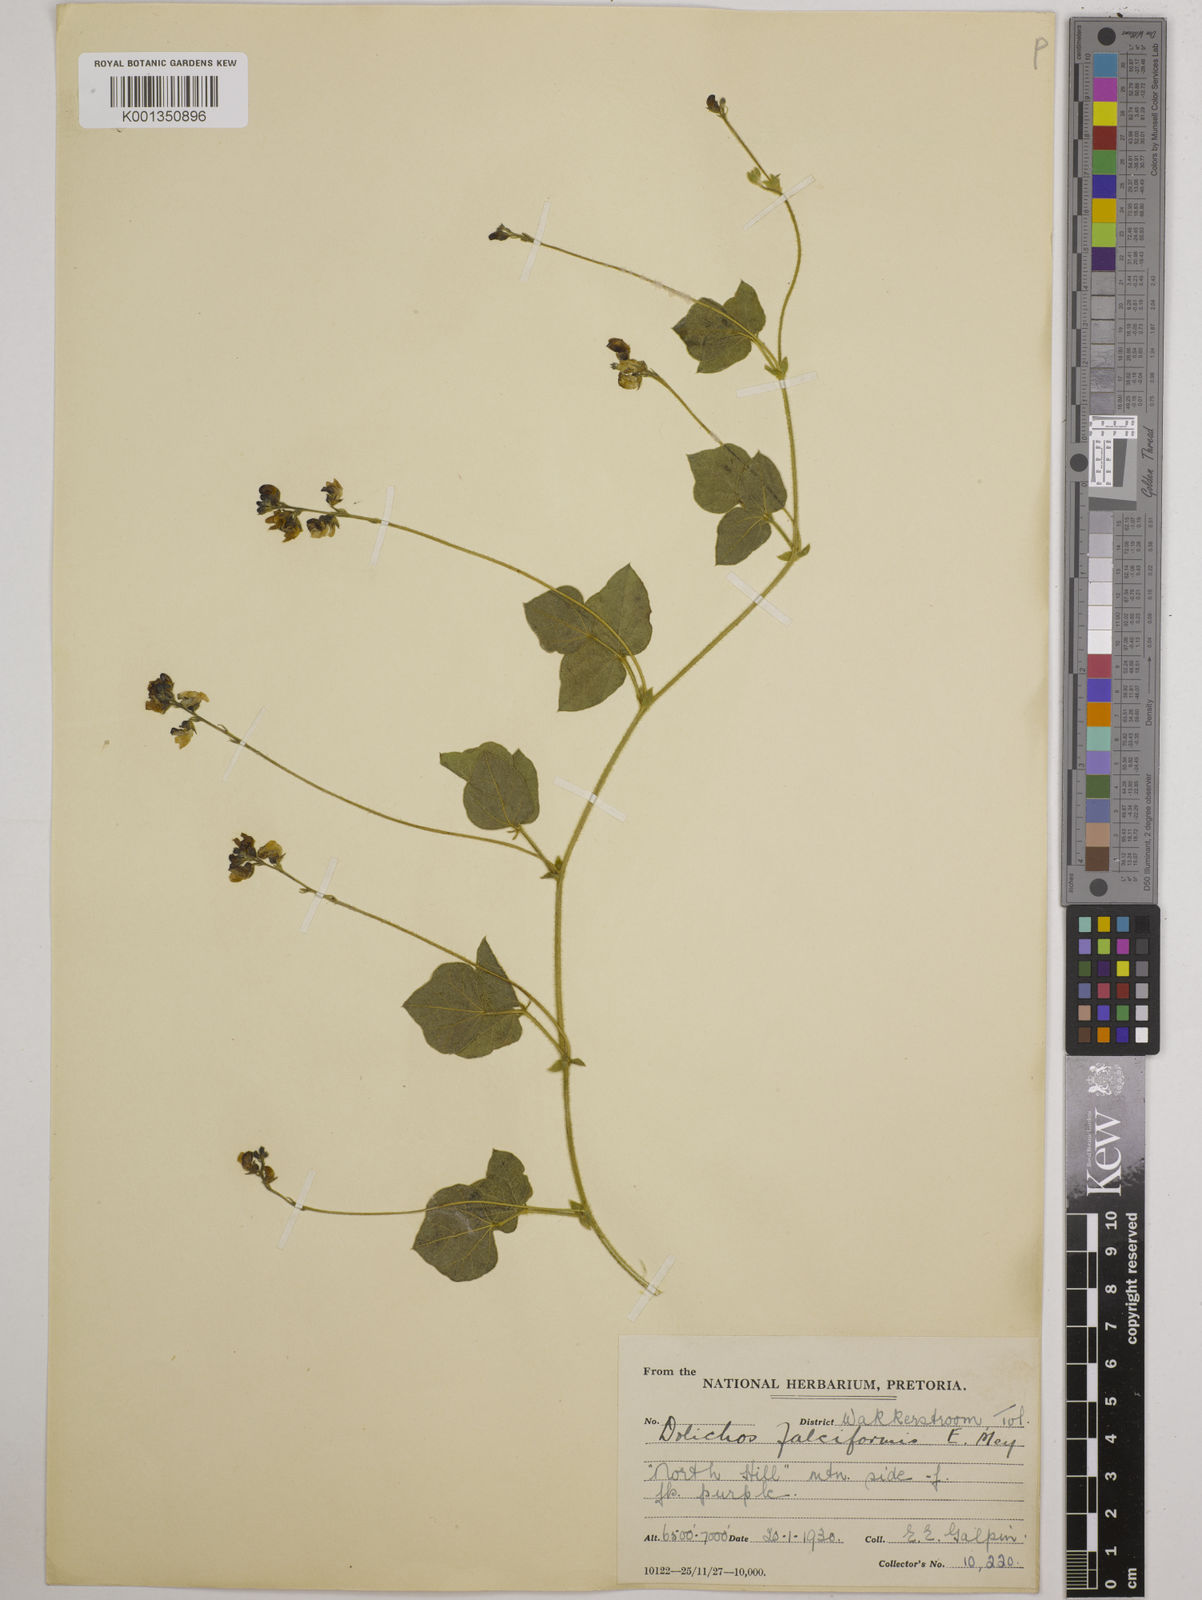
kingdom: Plantae
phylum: Tracheophyta
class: Magnoliopsida
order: Fabales
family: Fabaceae
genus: Dolichos
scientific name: Dolichos falciformis
